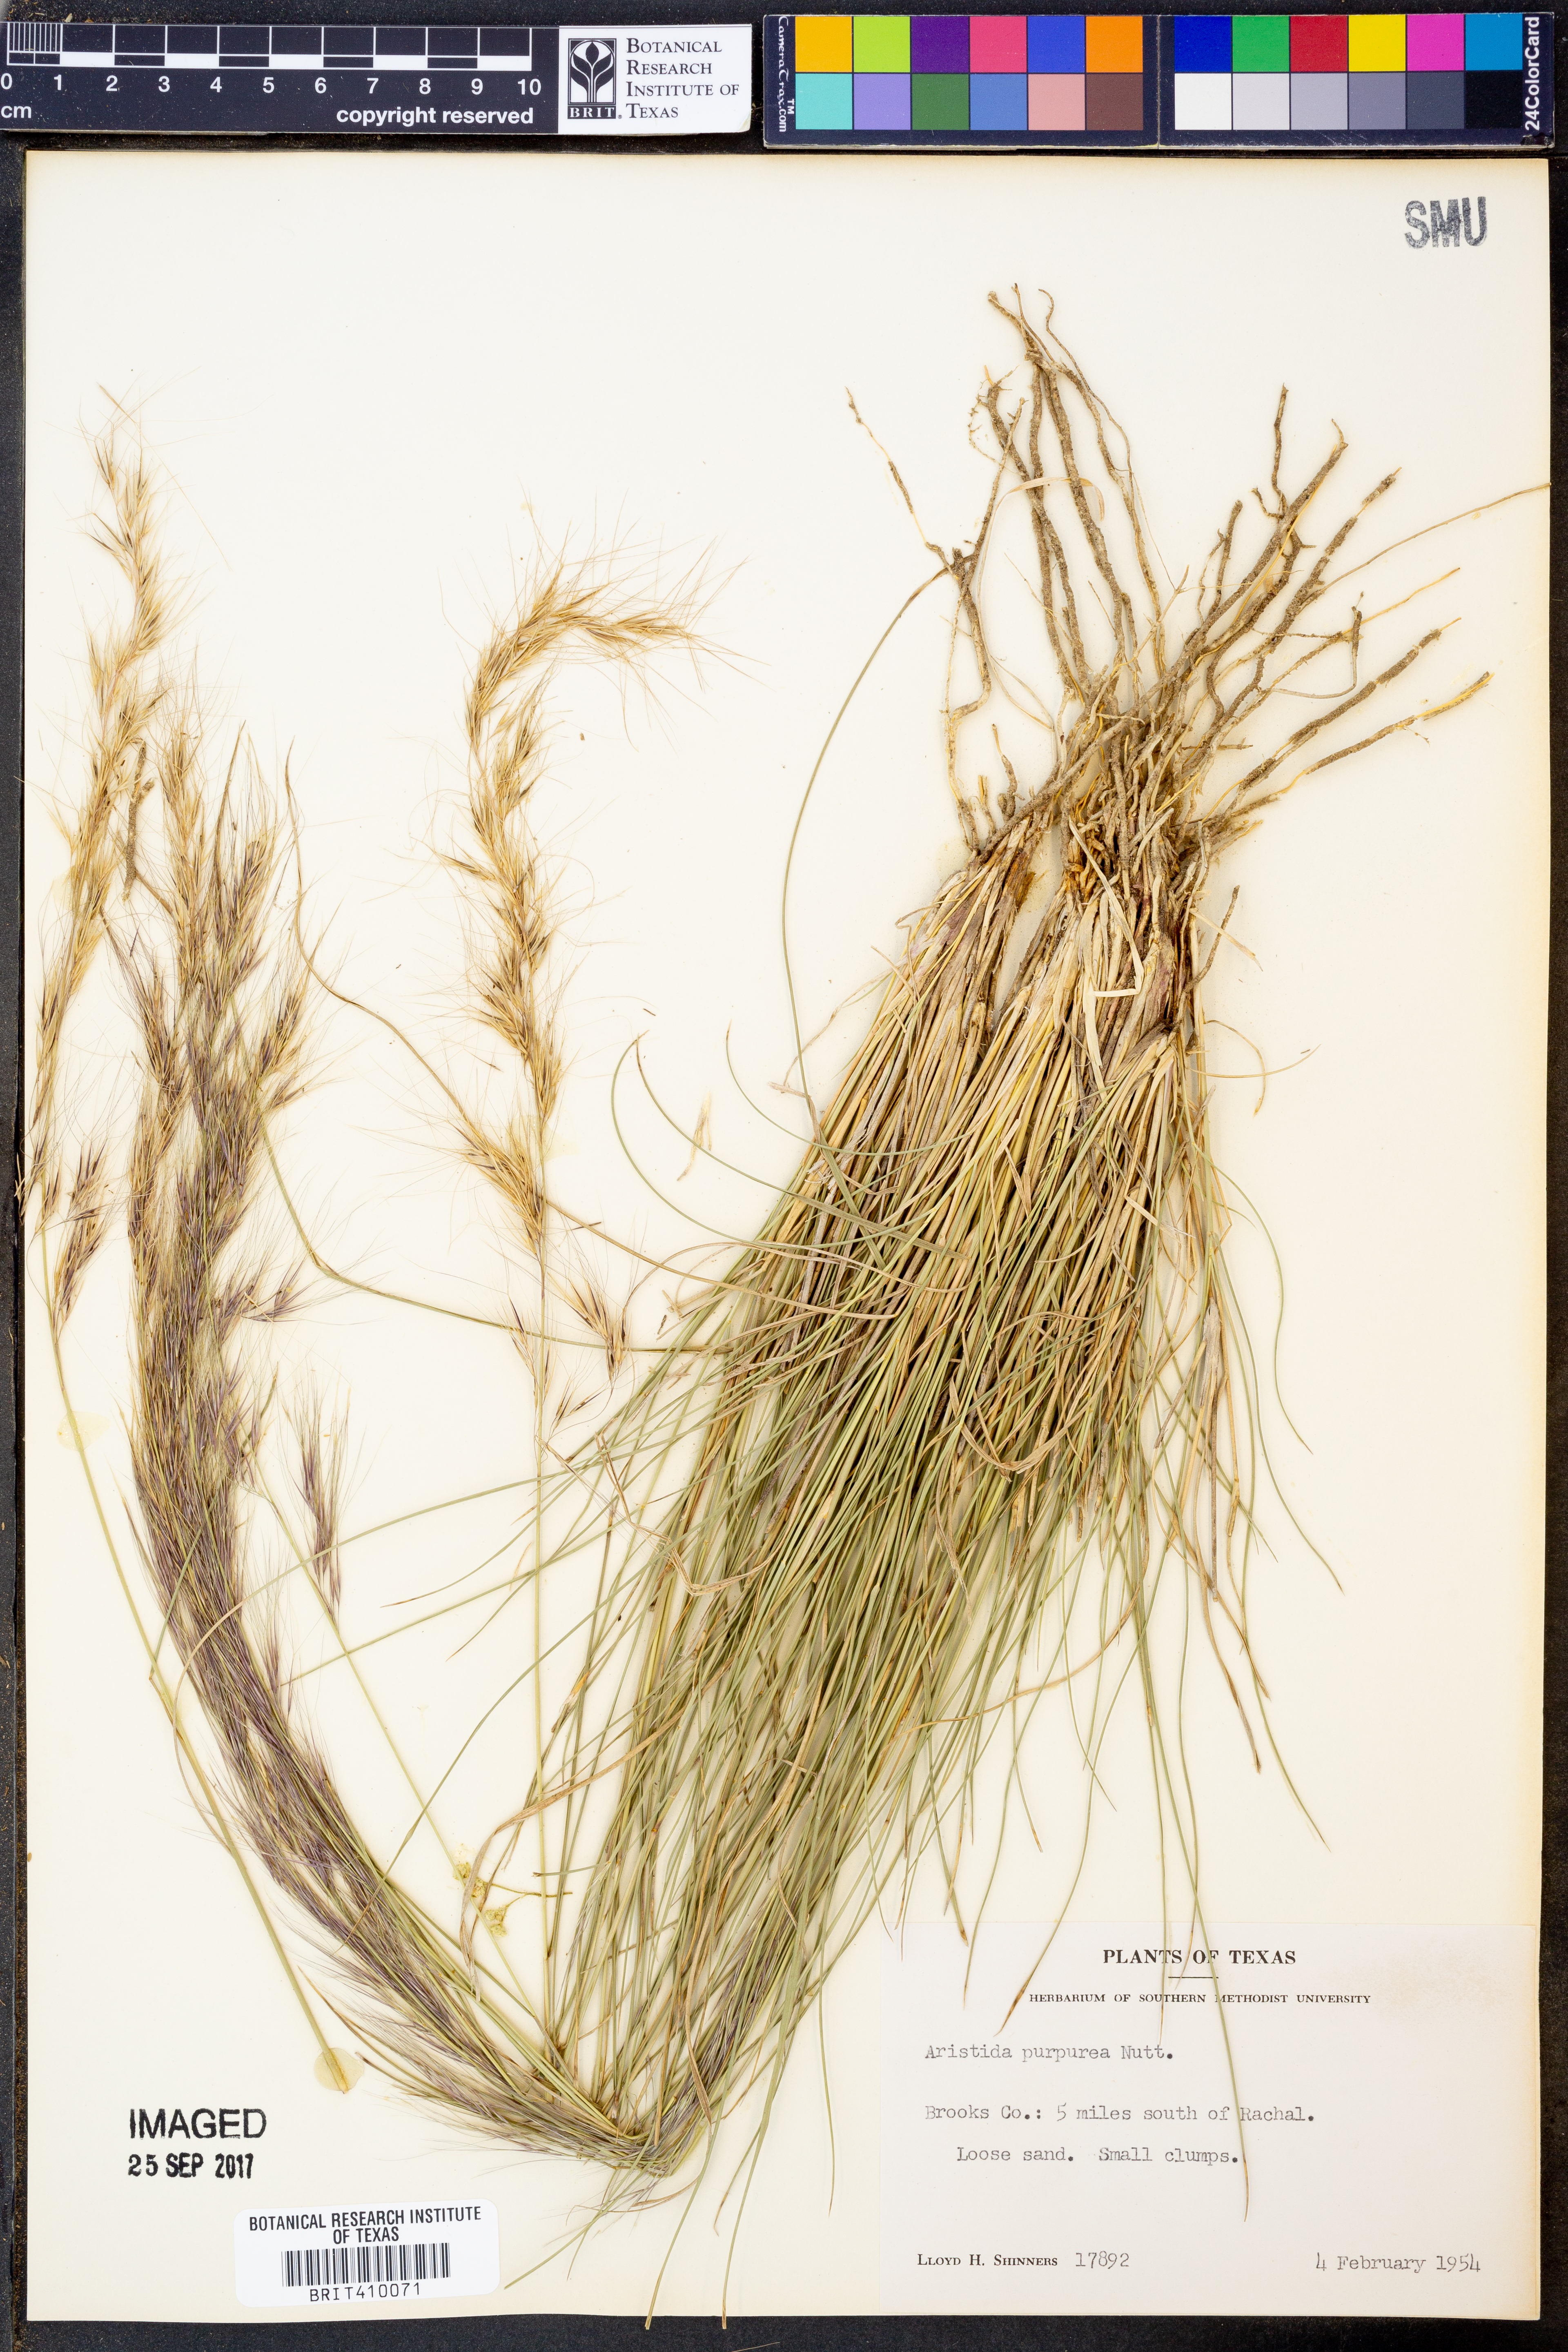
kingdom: Plantae
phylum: Tracheophyta
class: Liliopsida
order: Poales
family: Poaceae
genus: Aristida
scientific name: Aristida purpurea
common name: Purple threeawn
